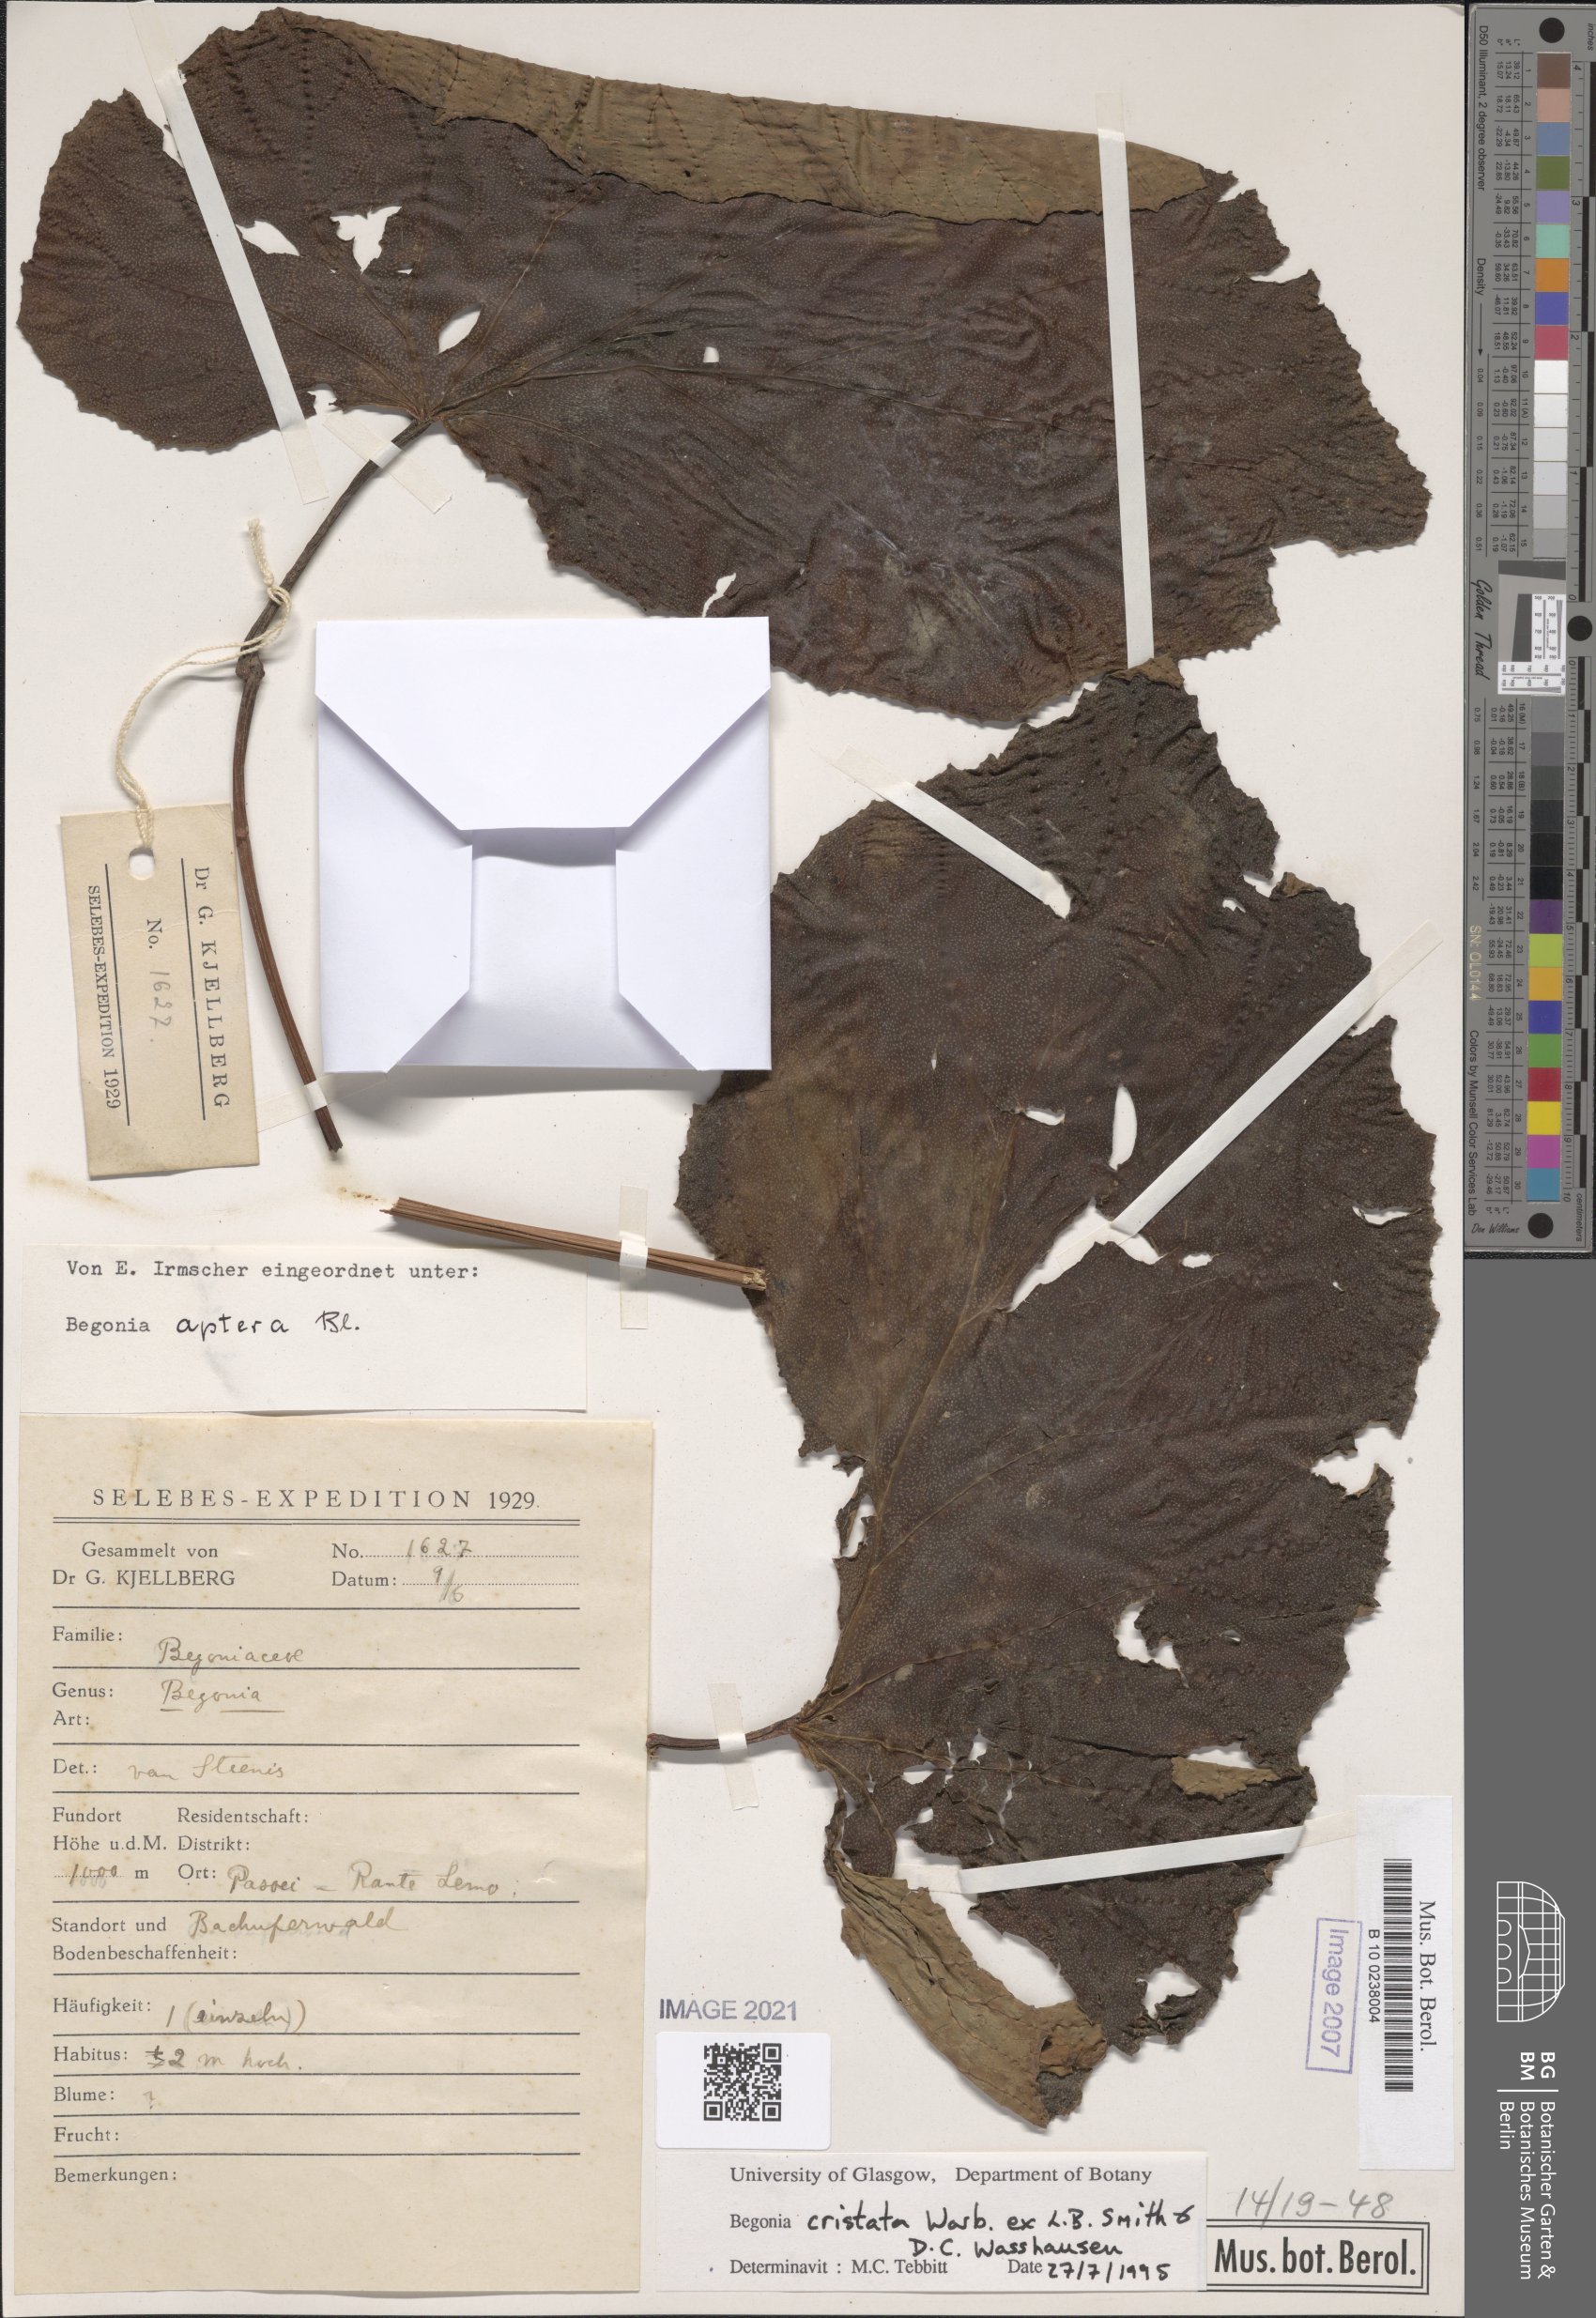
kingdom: Plantae
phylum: Tracheophyta
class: Magnoliopsida
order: Cucurbitales
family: Begoniaceae
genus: Begonia
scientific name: Begonia aptera
